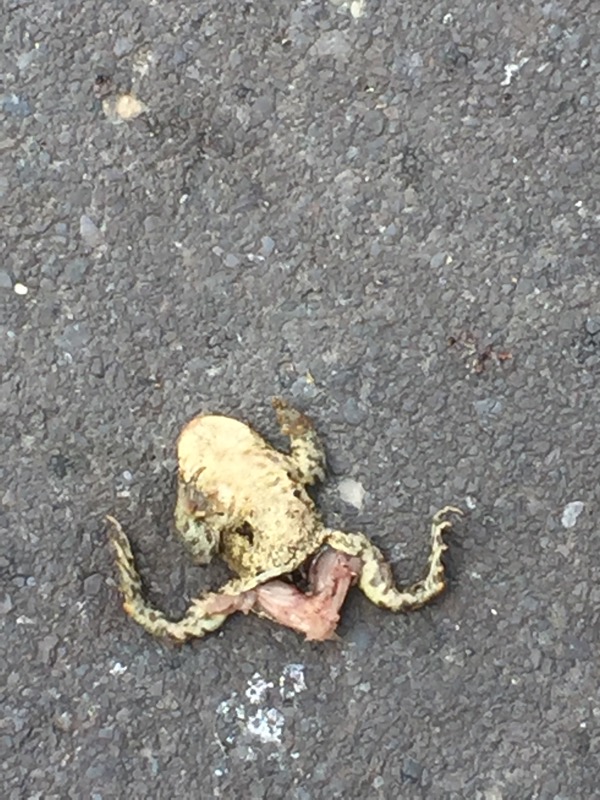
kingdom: Animalia
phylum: Chordata
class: Amphibia
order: Anura
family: Bufonidae
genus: Bufo
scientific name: Bufo bufo
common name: Common toad
